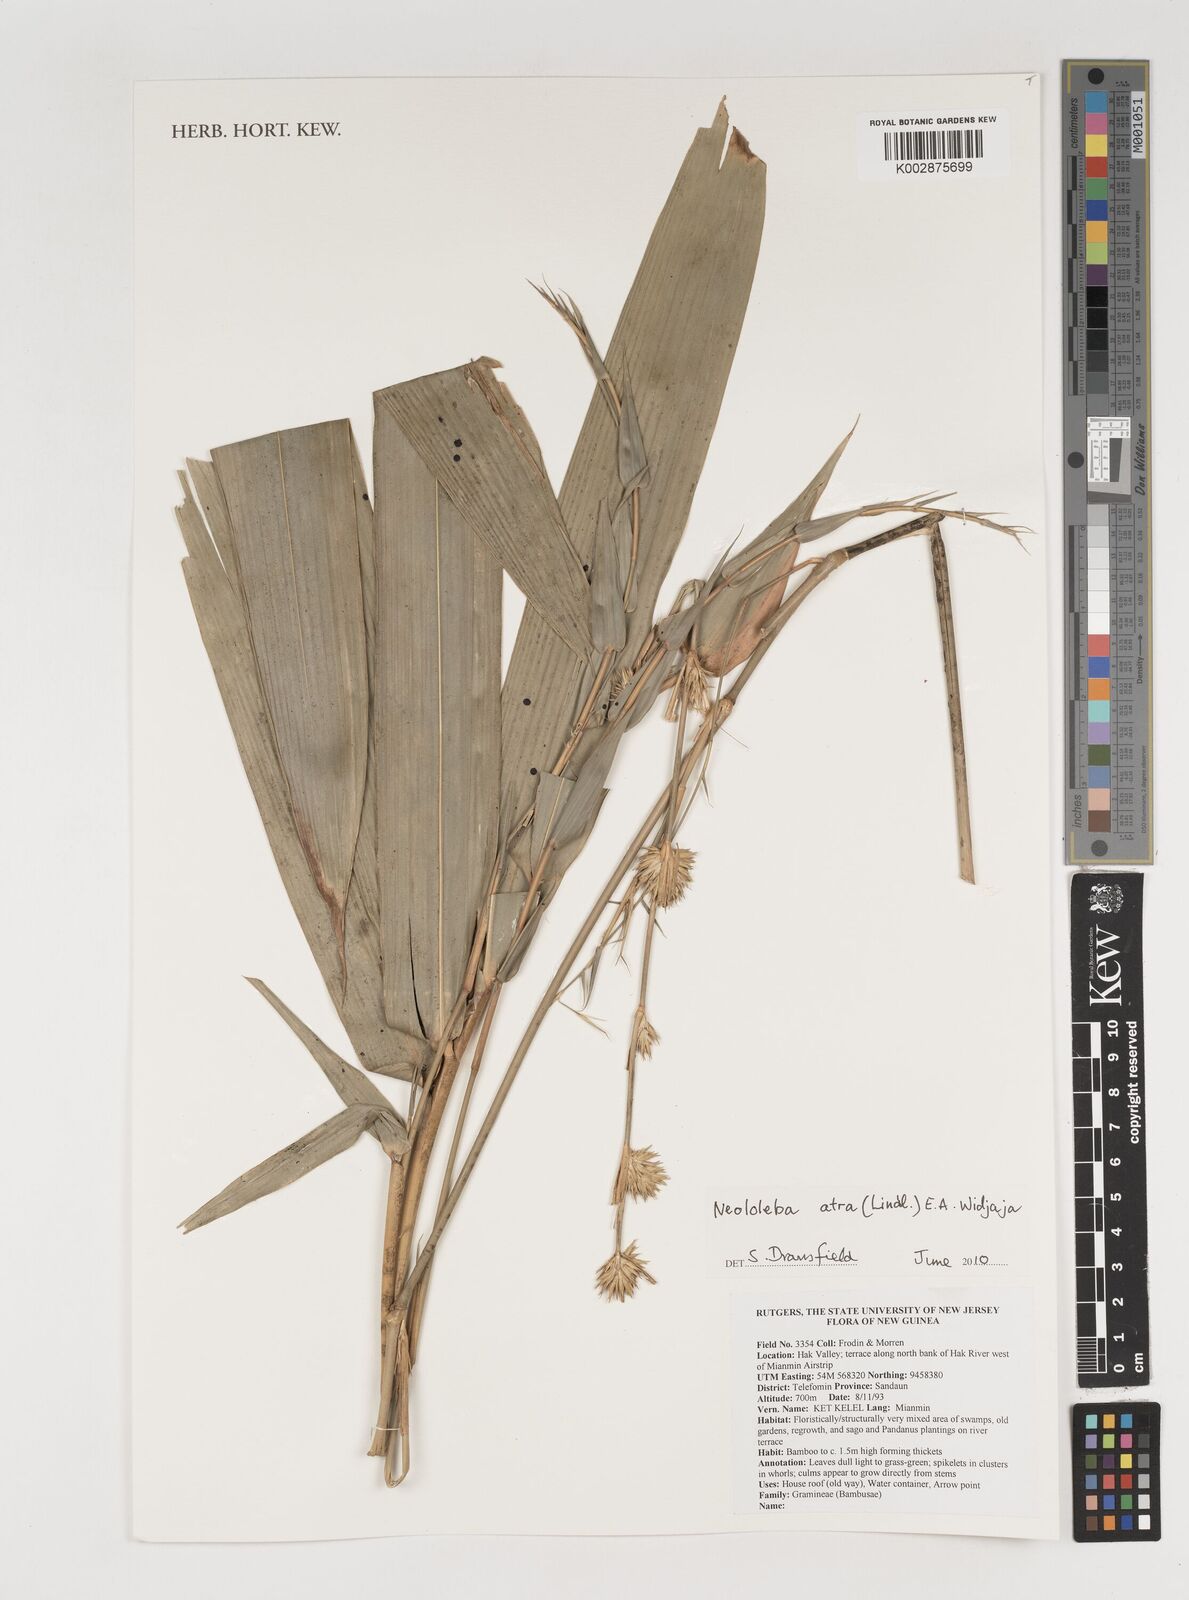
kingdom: Plantae
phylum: Tracheophyta
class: Liliopsida
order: Poales
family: Poaceae
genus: Neololeba
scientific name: Neololeba atra
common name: Cape bamboo
